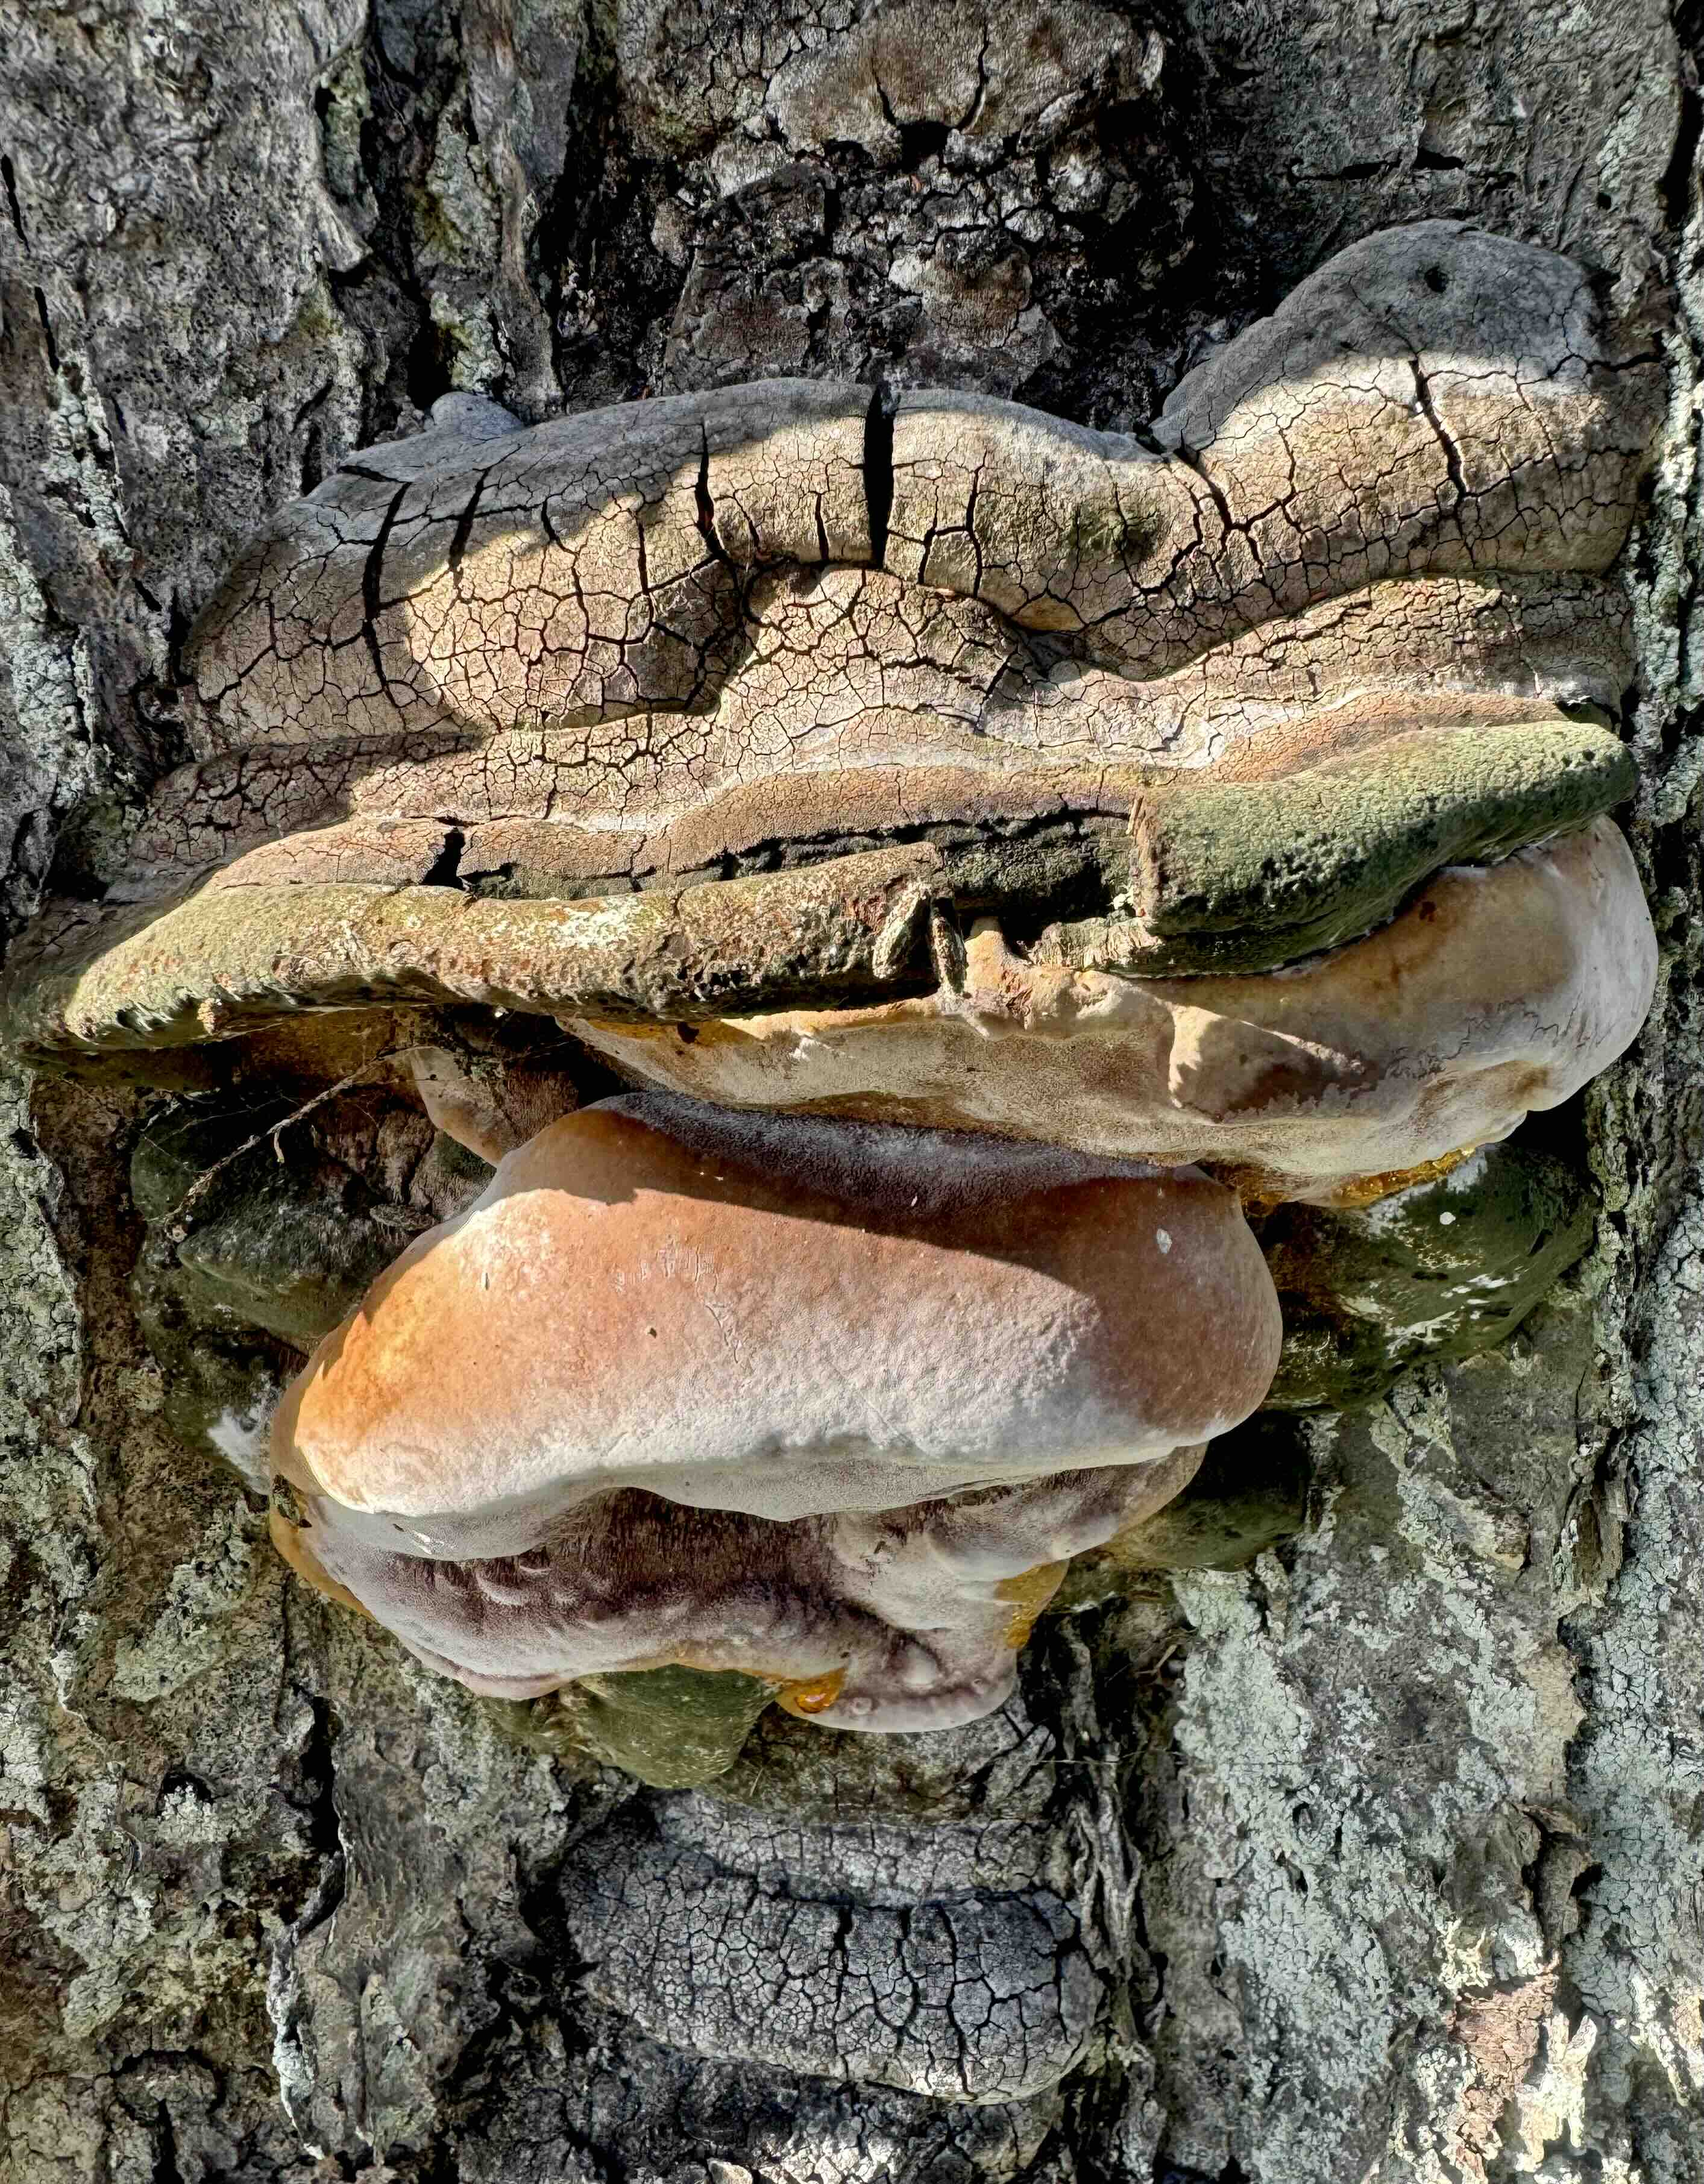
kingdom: Fungi
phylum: Basidiomycota
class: Agaricomycetes
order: Polyporales
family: Polyporaceae
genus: Ganoderma
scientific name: Ganoderma adspersum
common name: grov lakporesvamp
